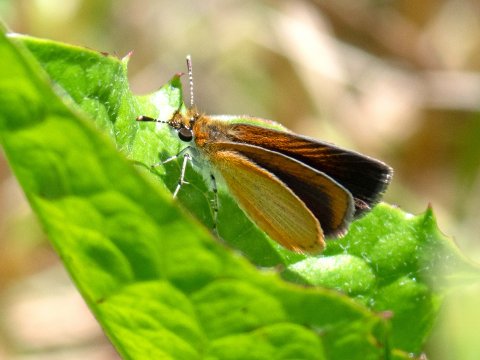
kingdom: Animalia
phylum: Arthropoda
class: Insecta
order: Lepidoptera
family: Hesperiidae
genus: Ancyloxypha
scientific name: Ancyloxypha numitor
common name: Least Skipper
